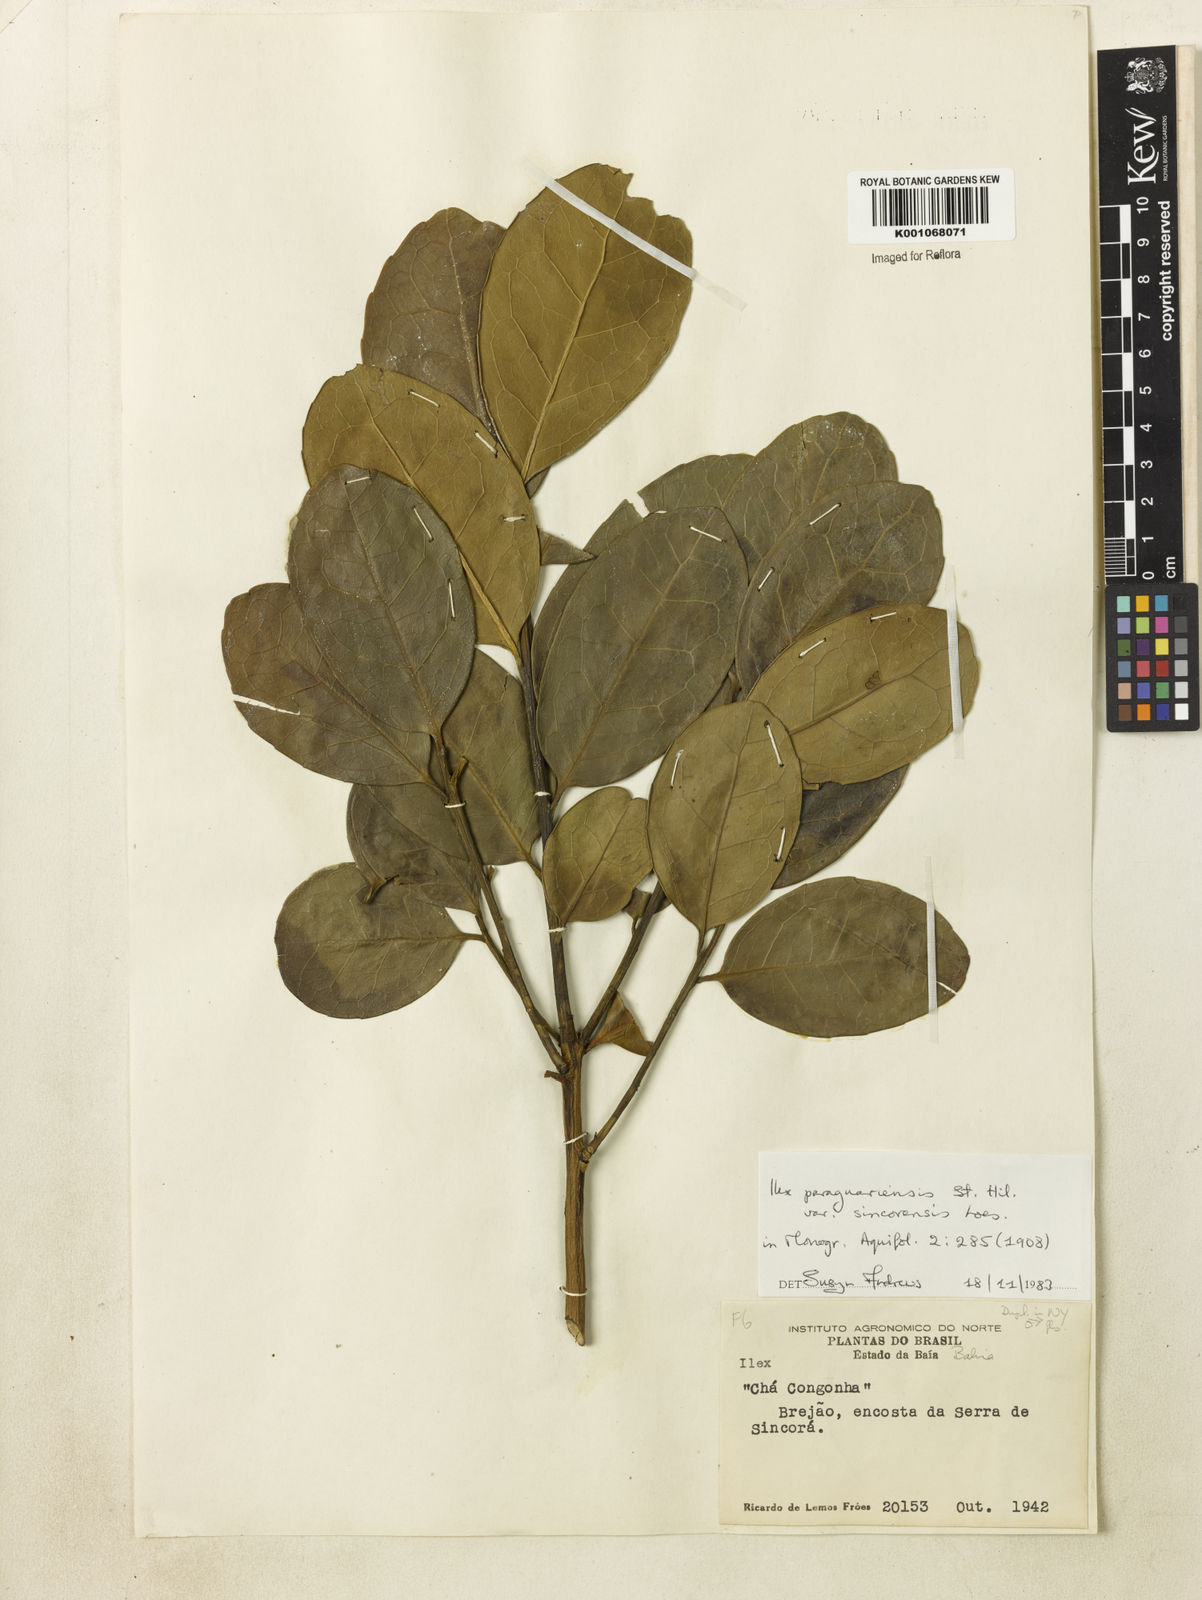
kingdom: Plantae
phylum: Tracheophyta
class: Magnoliopsida
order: Aquifoliales
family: Aquifoliaceae
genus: Ilex
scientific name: Ilex paraguariensis
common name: Paraguay tea
